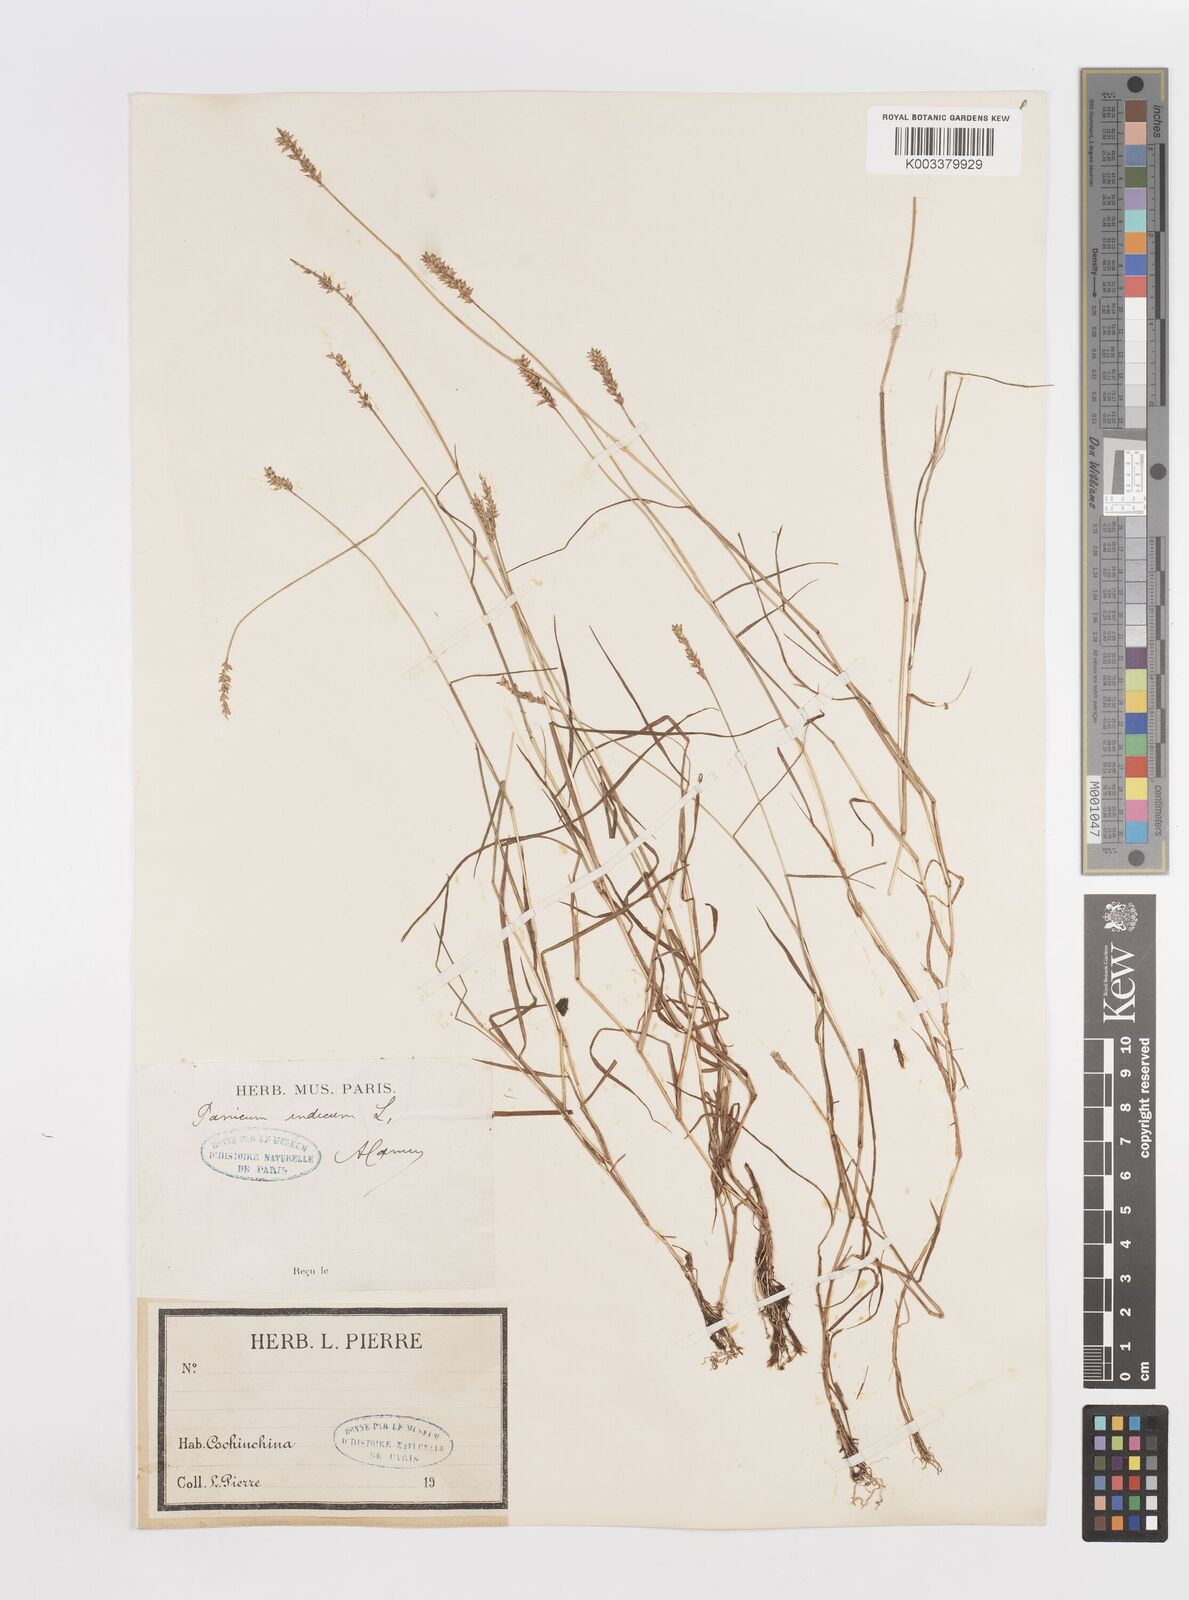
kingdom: Plantae
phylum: Tracheophyta
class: Liliopsida
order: Poales
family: Poaceae
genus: Sacciolepis
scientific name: Sacciolepis indica
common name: Glenwoodgrass
